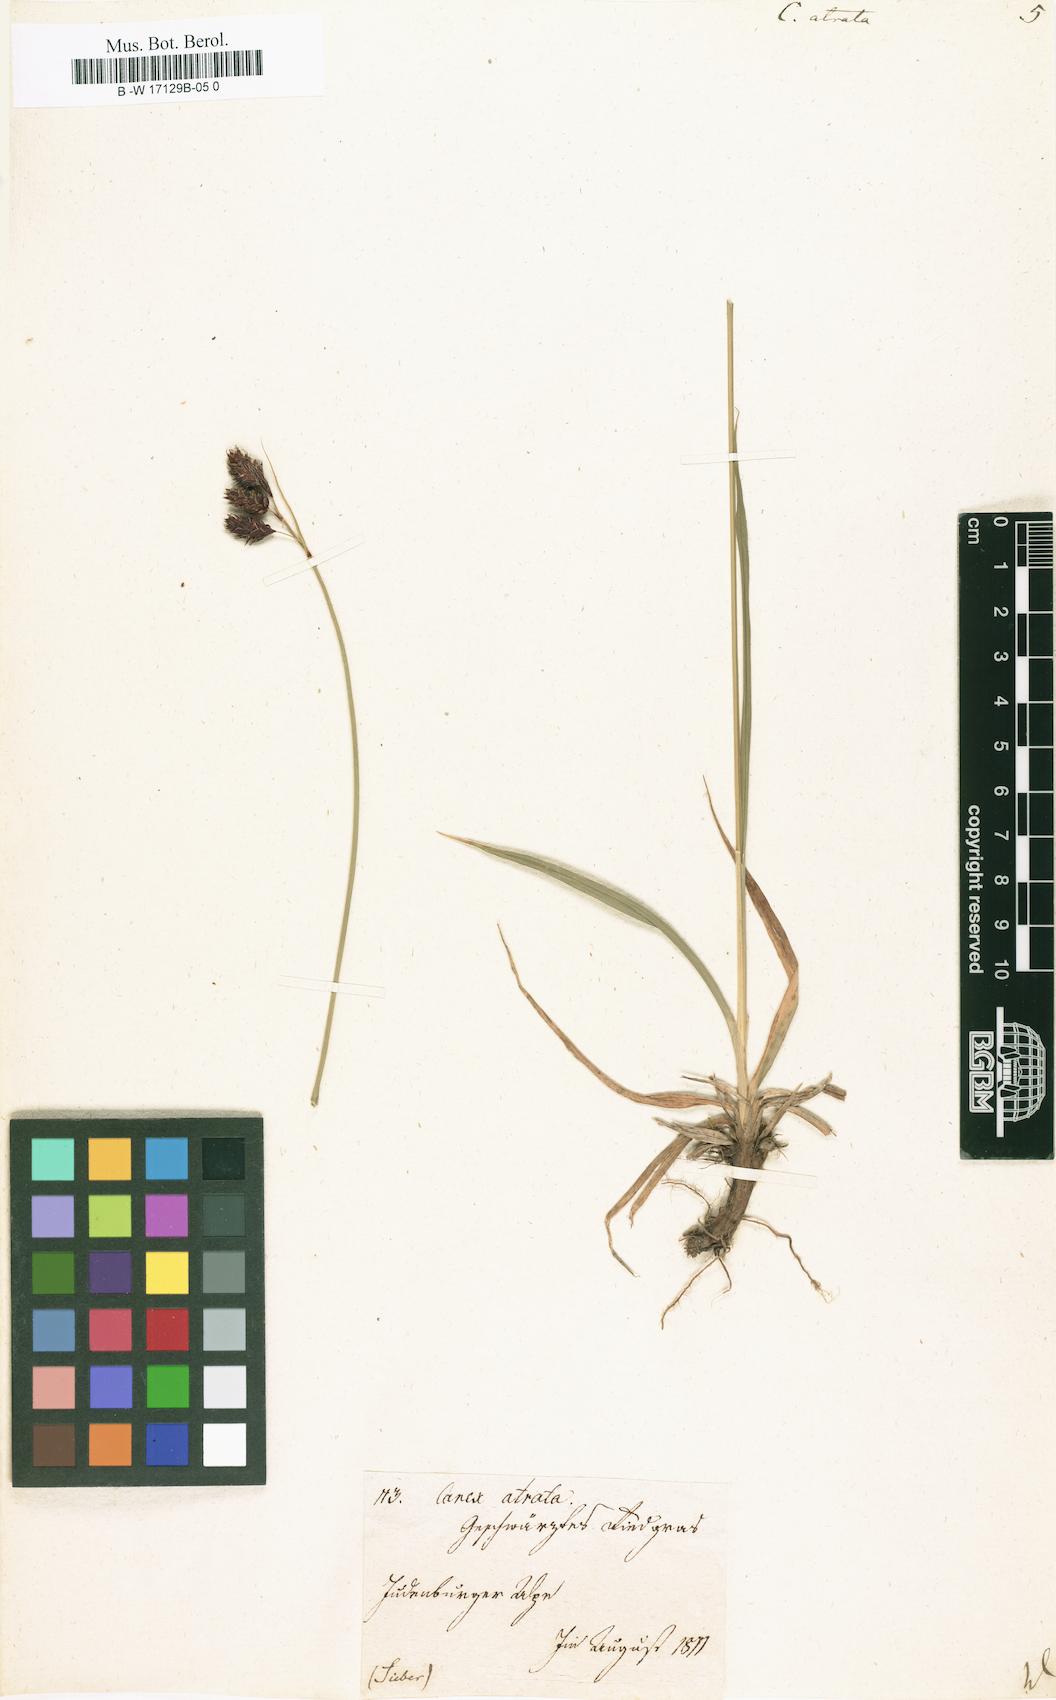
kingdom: Plantae
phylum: Tracheophyta
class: Liliopsida
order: Poales
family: Cyperaceae
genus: Carex
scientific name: Carex atrata
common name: Black alpine sedge
